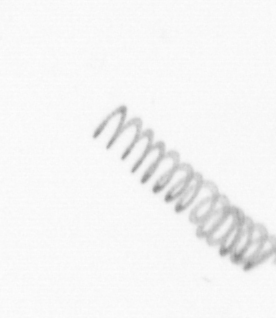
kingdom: Chromista
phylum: Ochrophyta
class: Bacillariophyceae
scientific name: Bacillariophyceae
